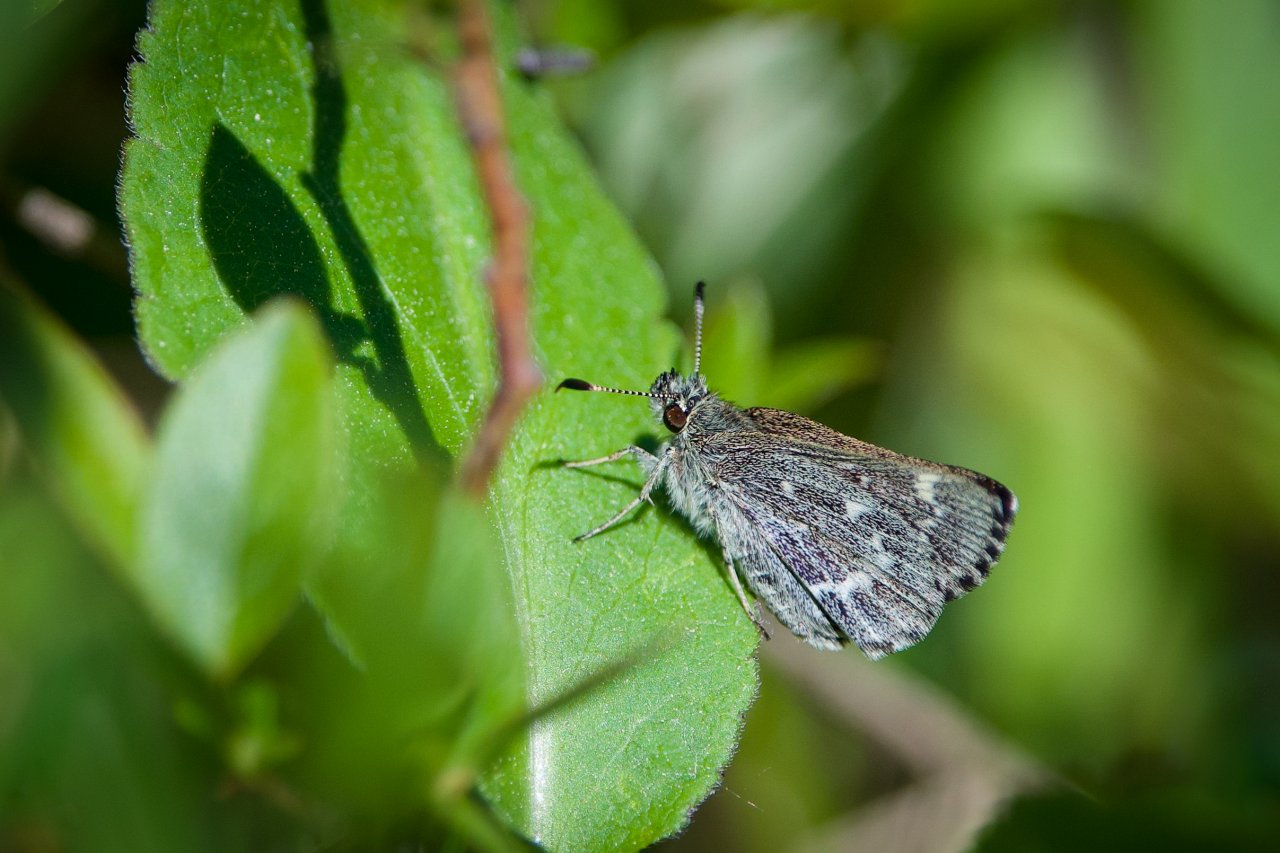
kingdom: Animalia
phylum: Arthropoda
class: Insecta
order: Lepidoptera
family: Hesperiidae
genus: Mastor
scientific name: Mastor hegon
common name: Pepper and Salt Skipper
